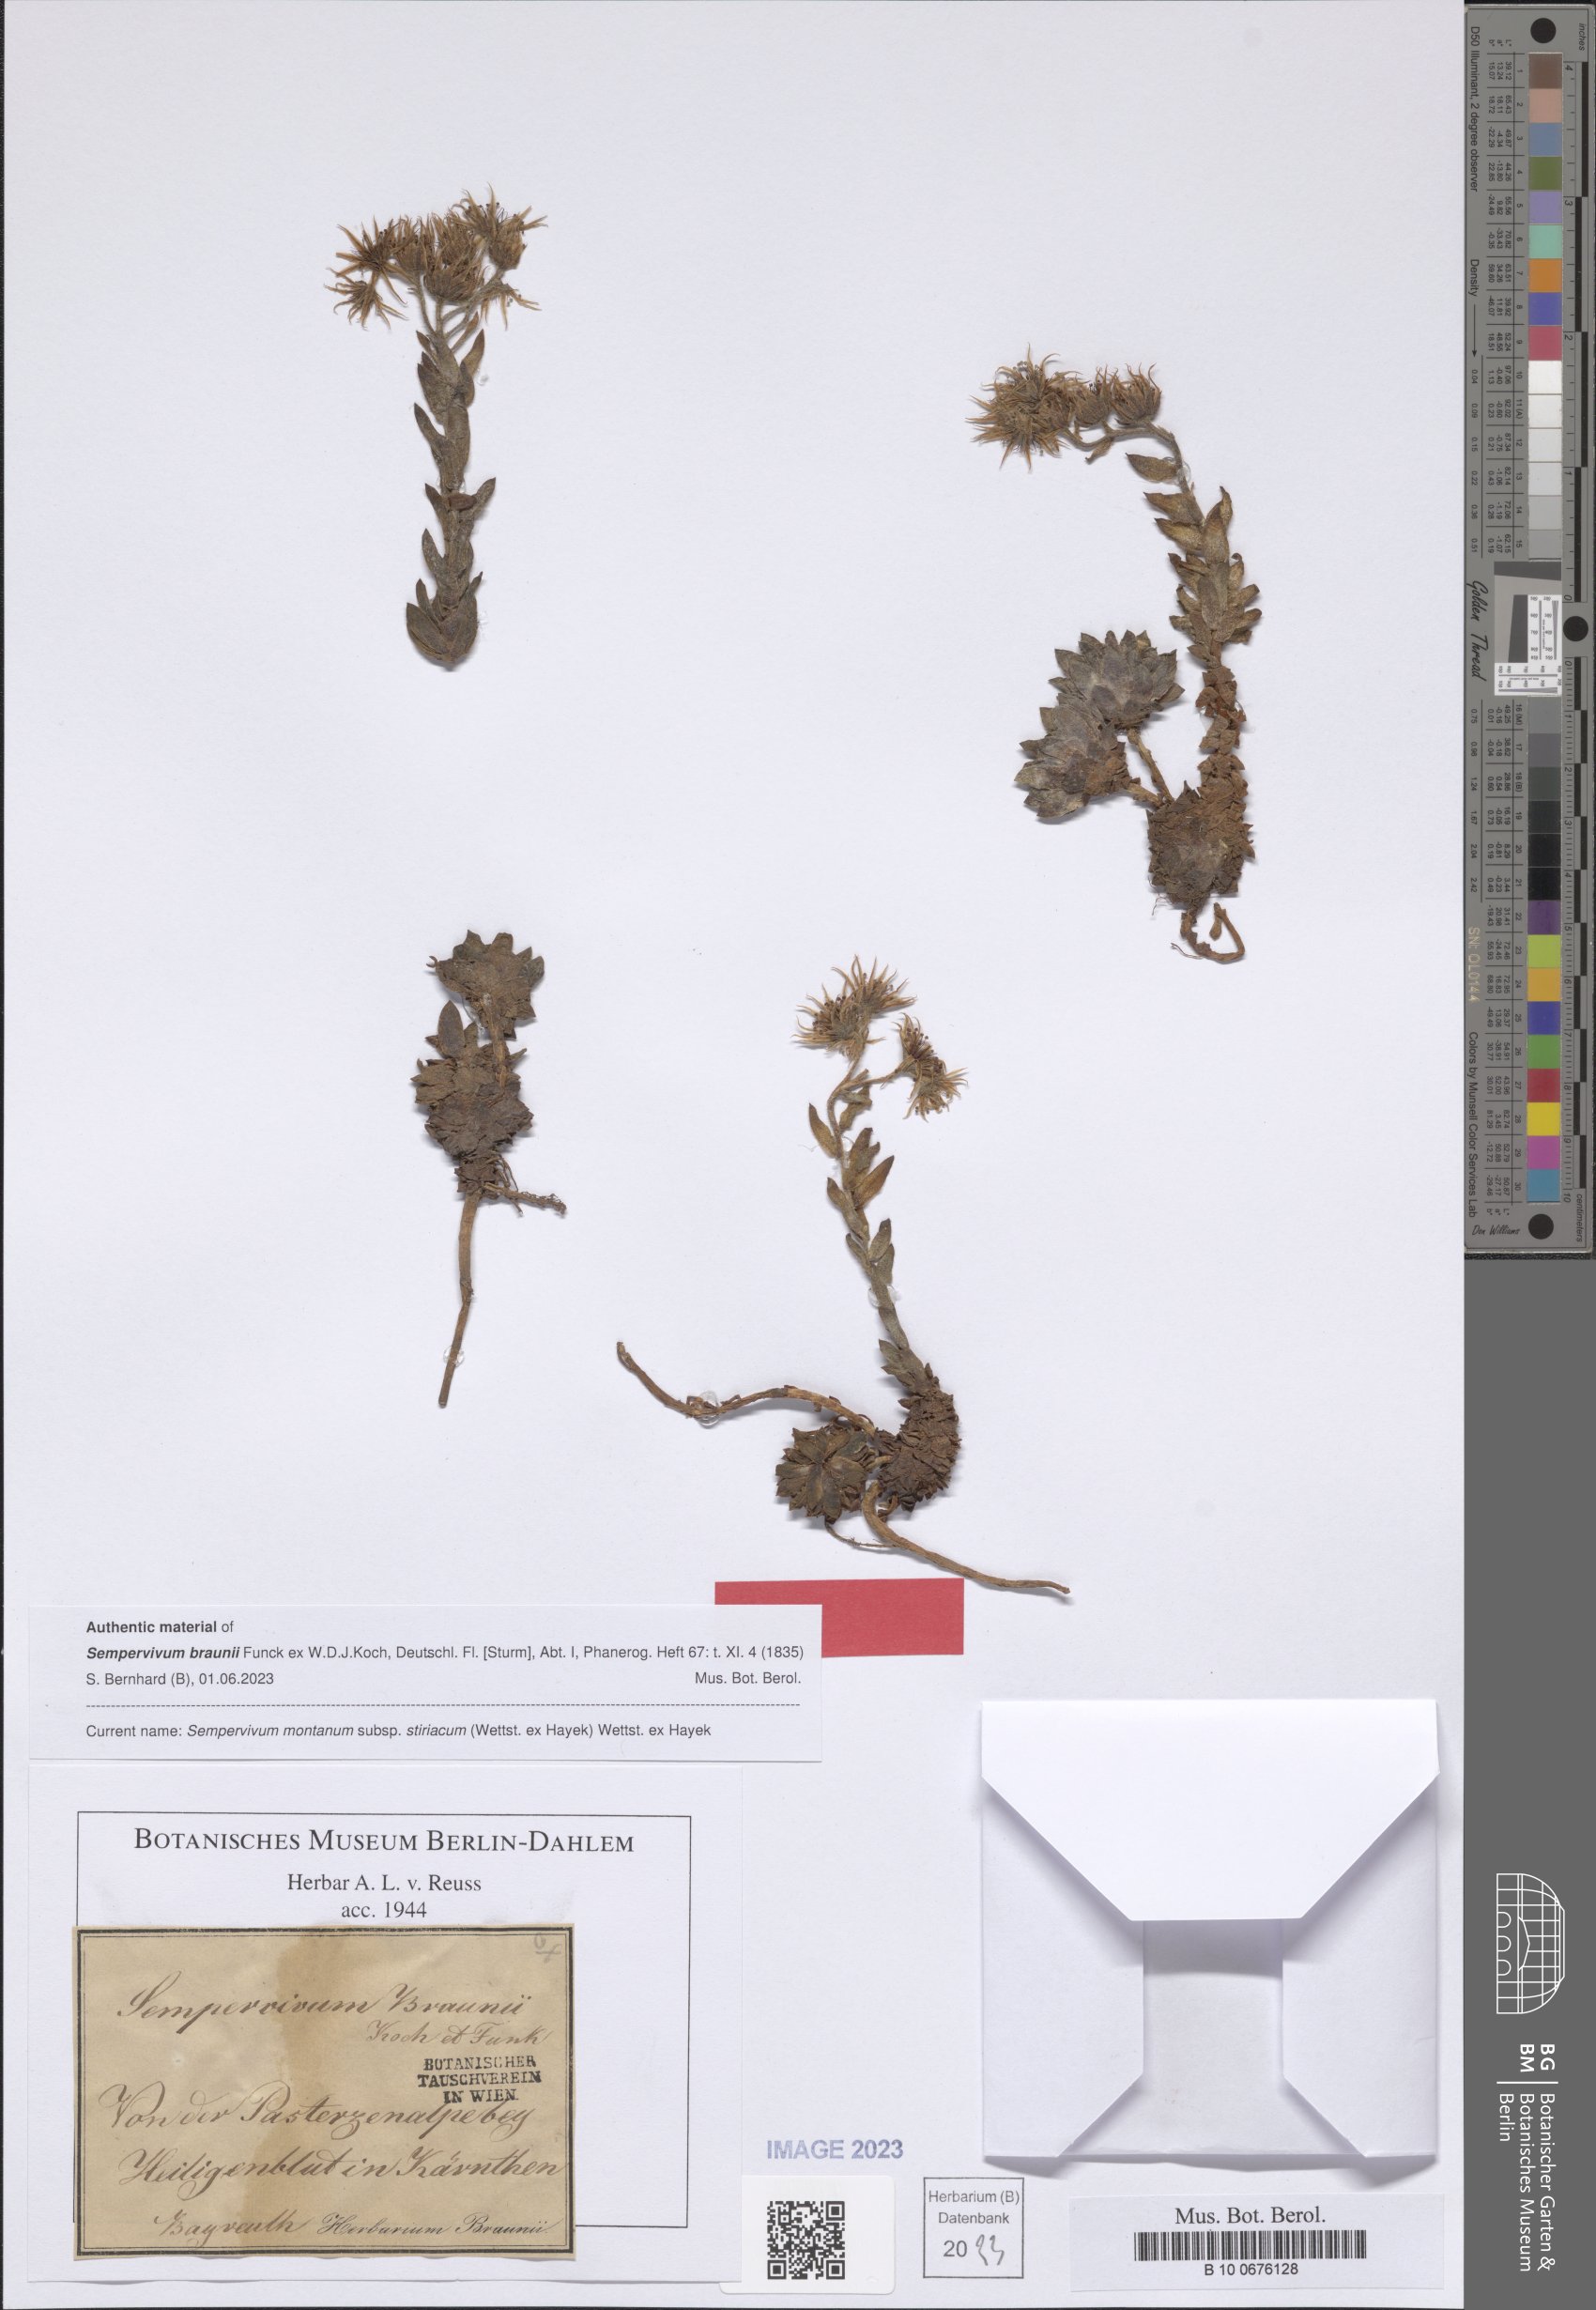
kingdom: Plantae
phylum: Tracheophyta
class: Magnoliopsida
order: Saxifragales
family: Crassulaceae
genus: Sempervivum
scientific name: Sempervivum montanum
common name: Mountain house-leek
